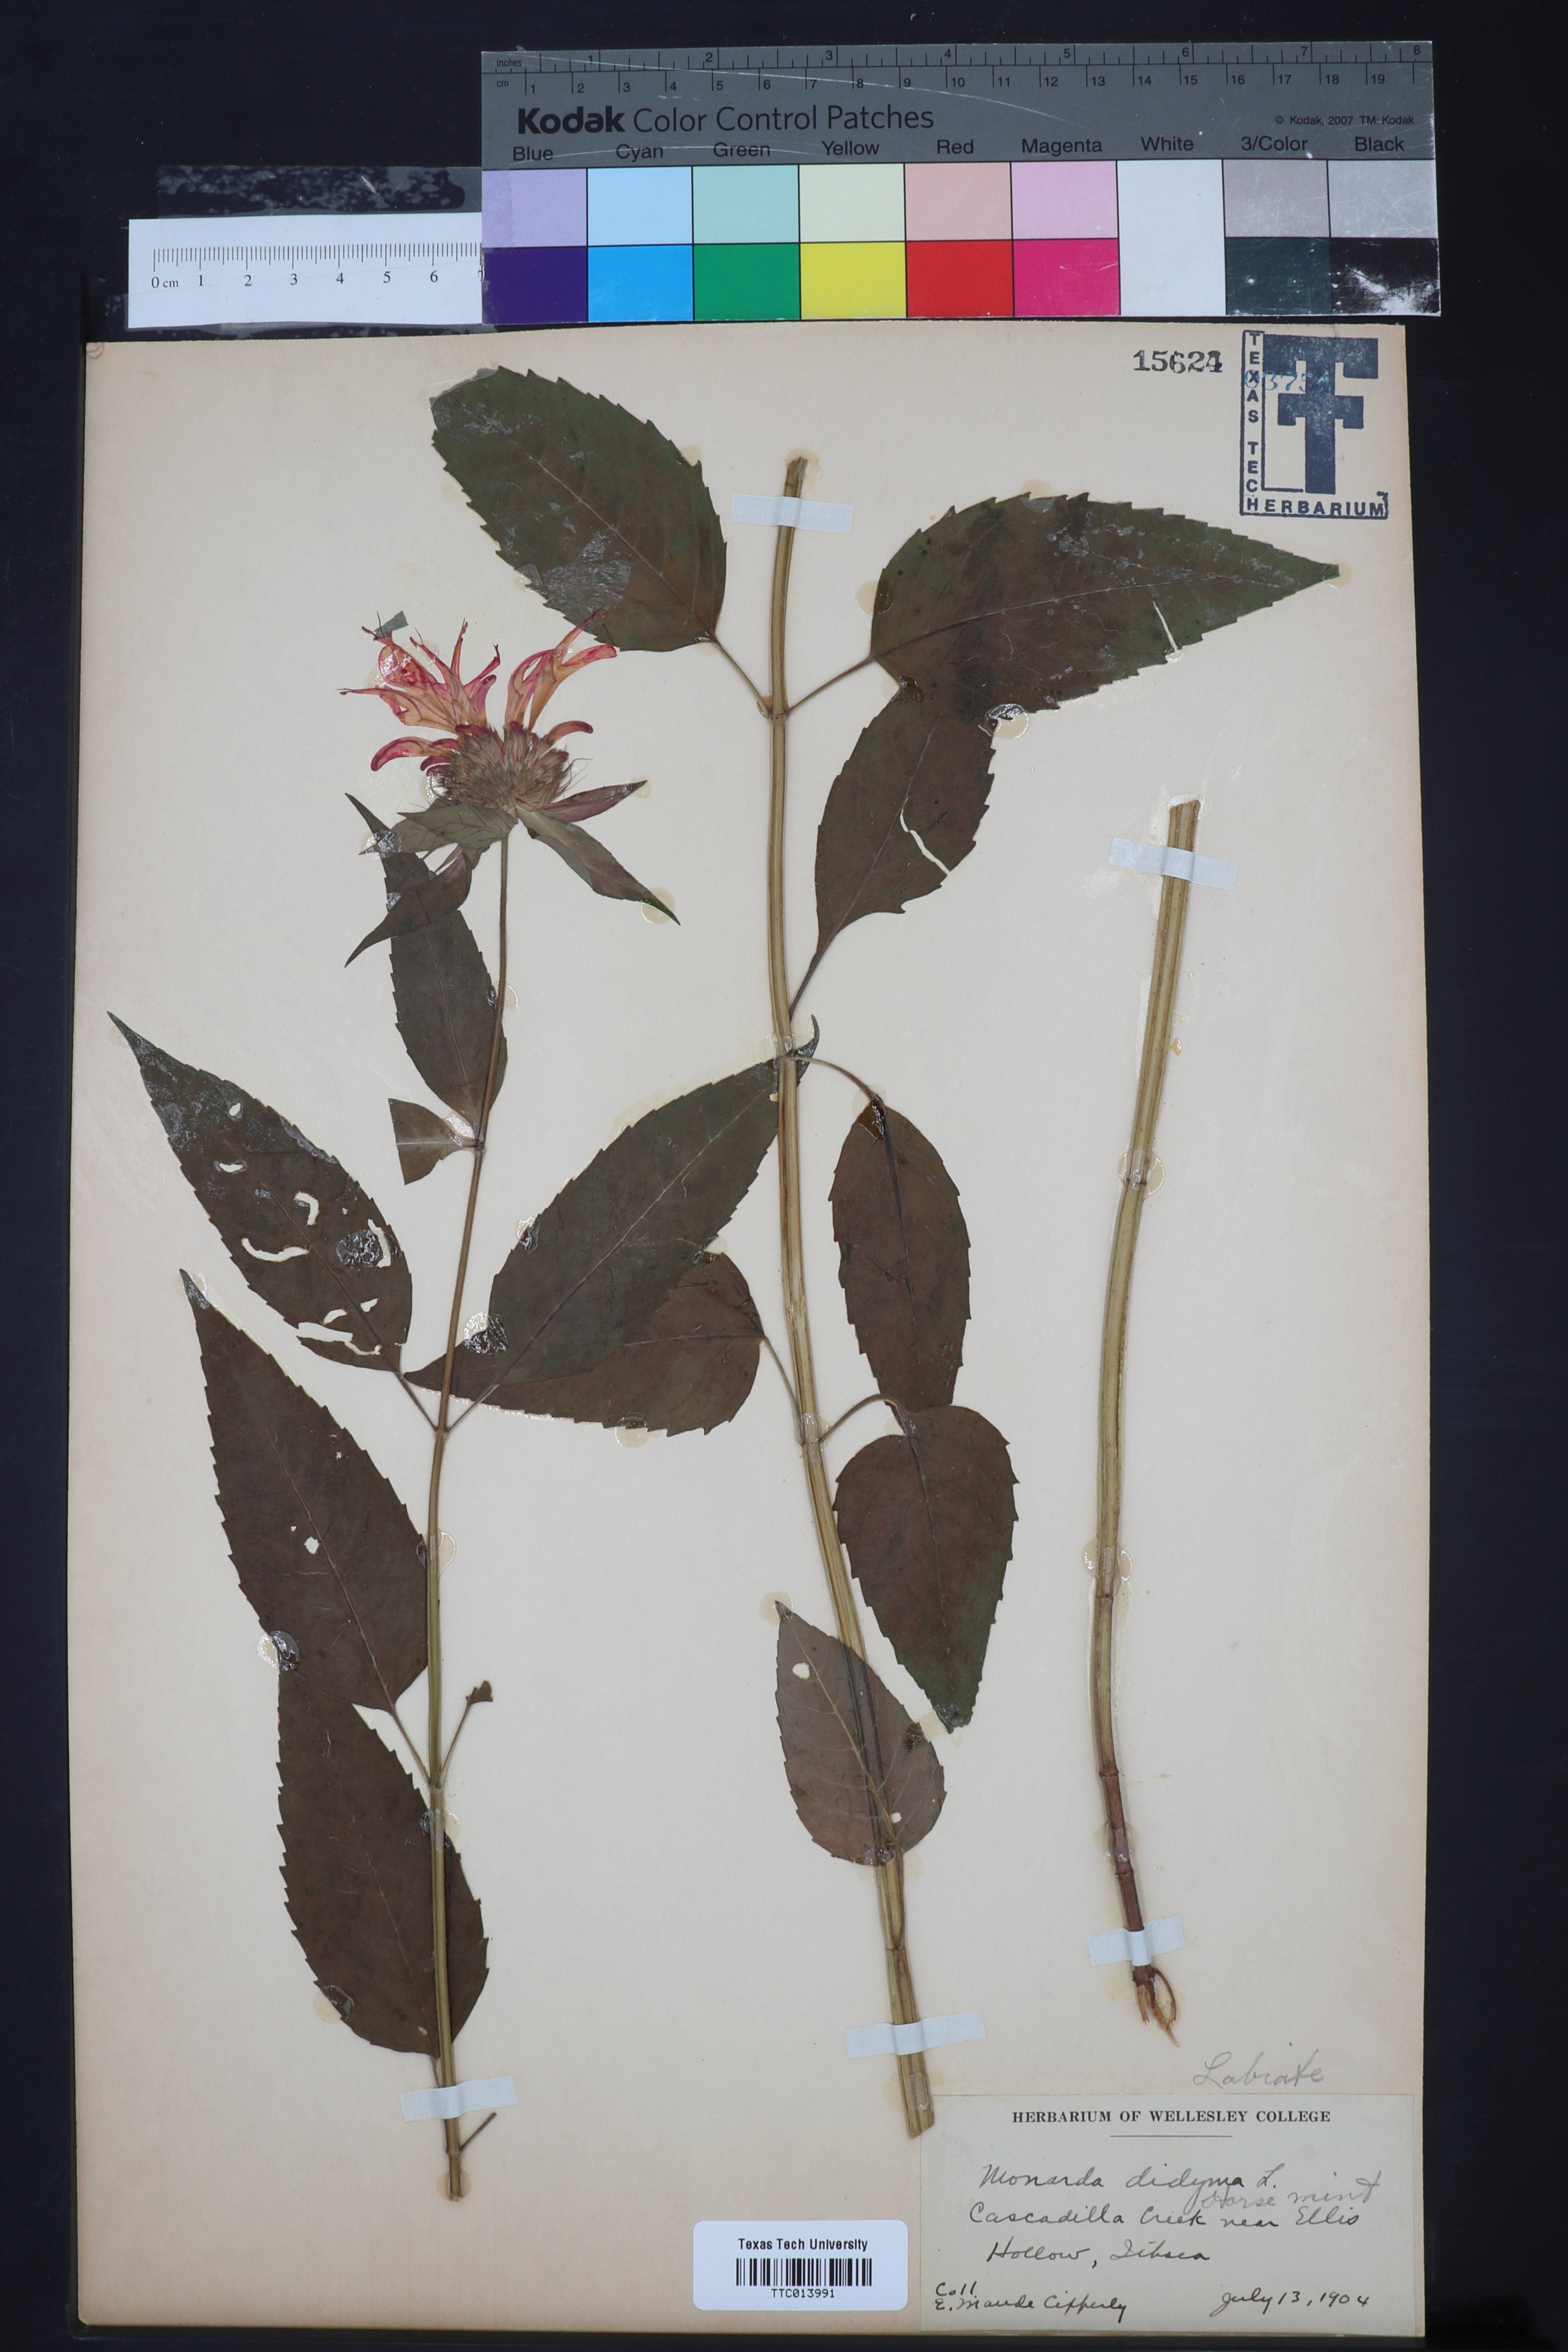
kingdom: Plantae
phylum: Tracheophyta
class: Magnoliopsida
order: Lamiales
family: Lamiaceae
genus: Monarda
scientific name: Monarda didyma
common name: Beebalm
